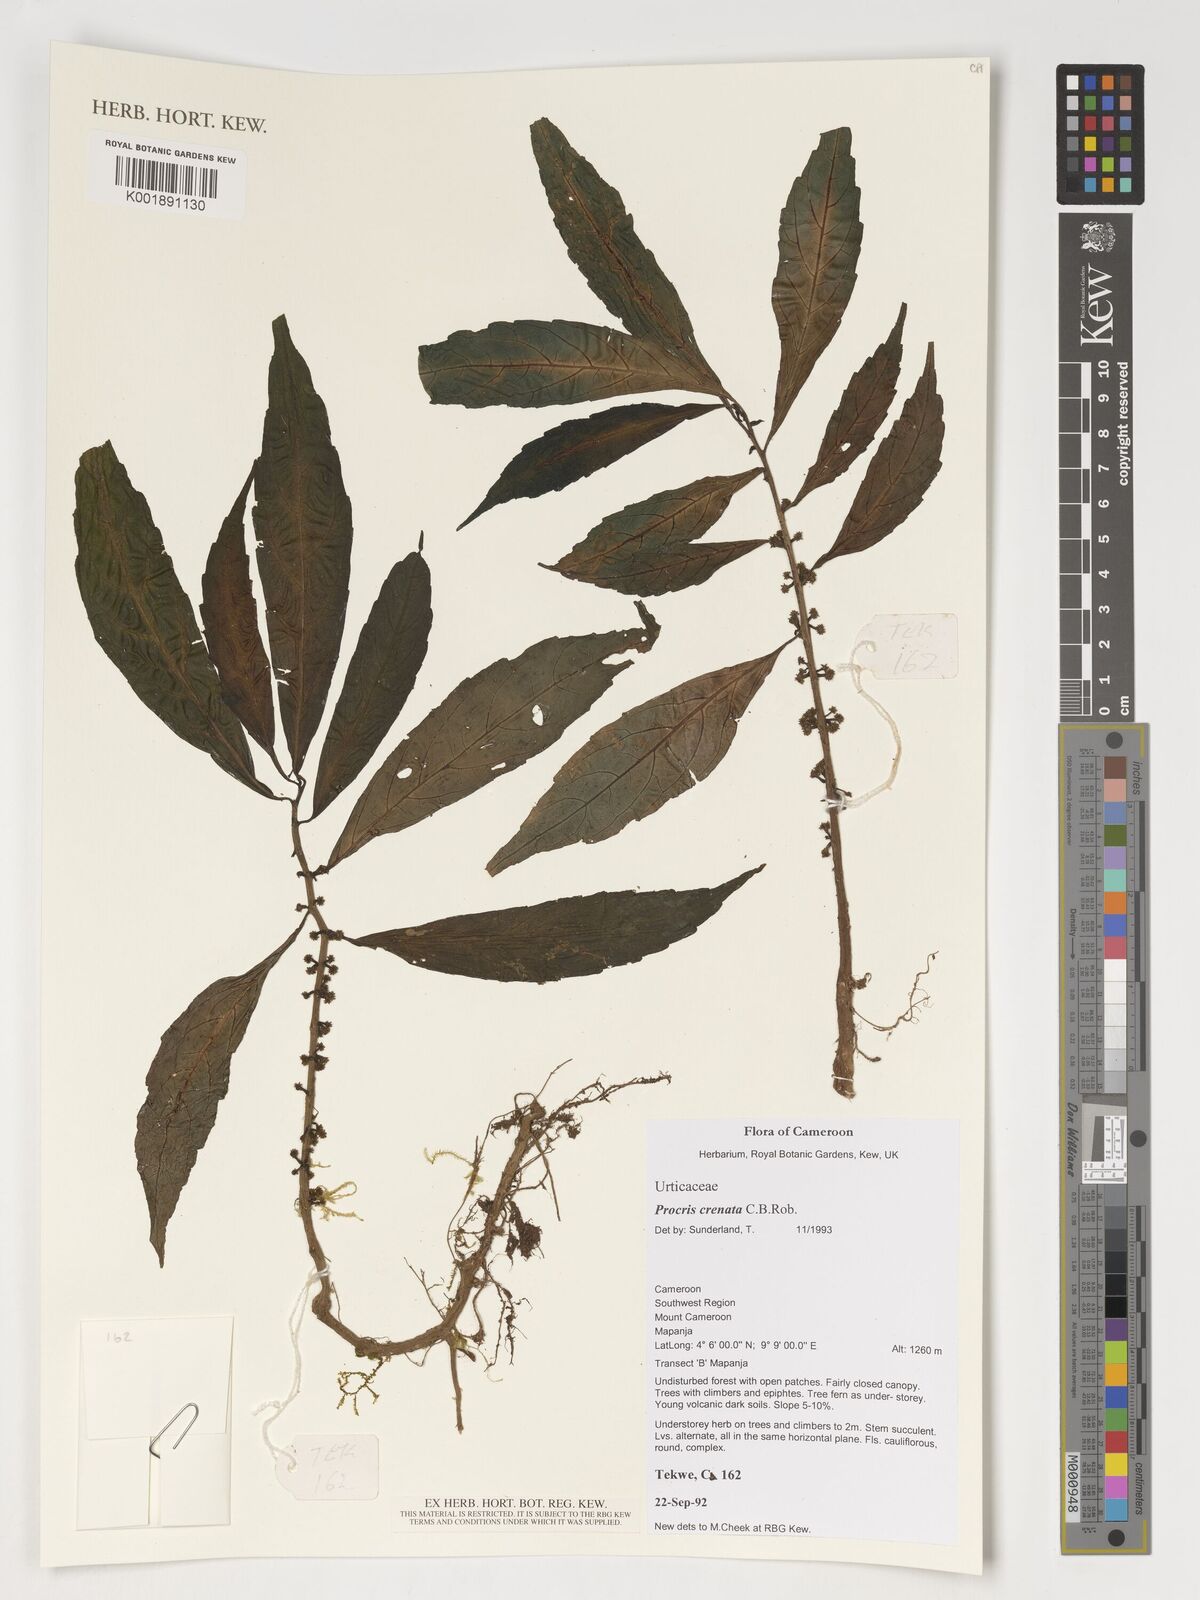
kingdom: Plantae
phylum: Tracheophyta
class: Magnoliopsida
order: Rosales
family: Urticaceae
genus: Procris
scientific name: Procris crenata
